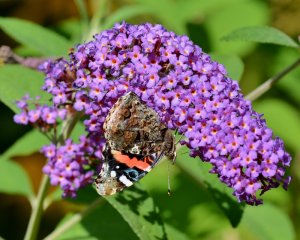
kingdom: Animalia
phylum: Arthropoda
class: Insecta
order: Lepidoptera
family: Nymphalidae
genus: Vanessa
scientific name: Vanessa atalanta
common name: Red Admiral
